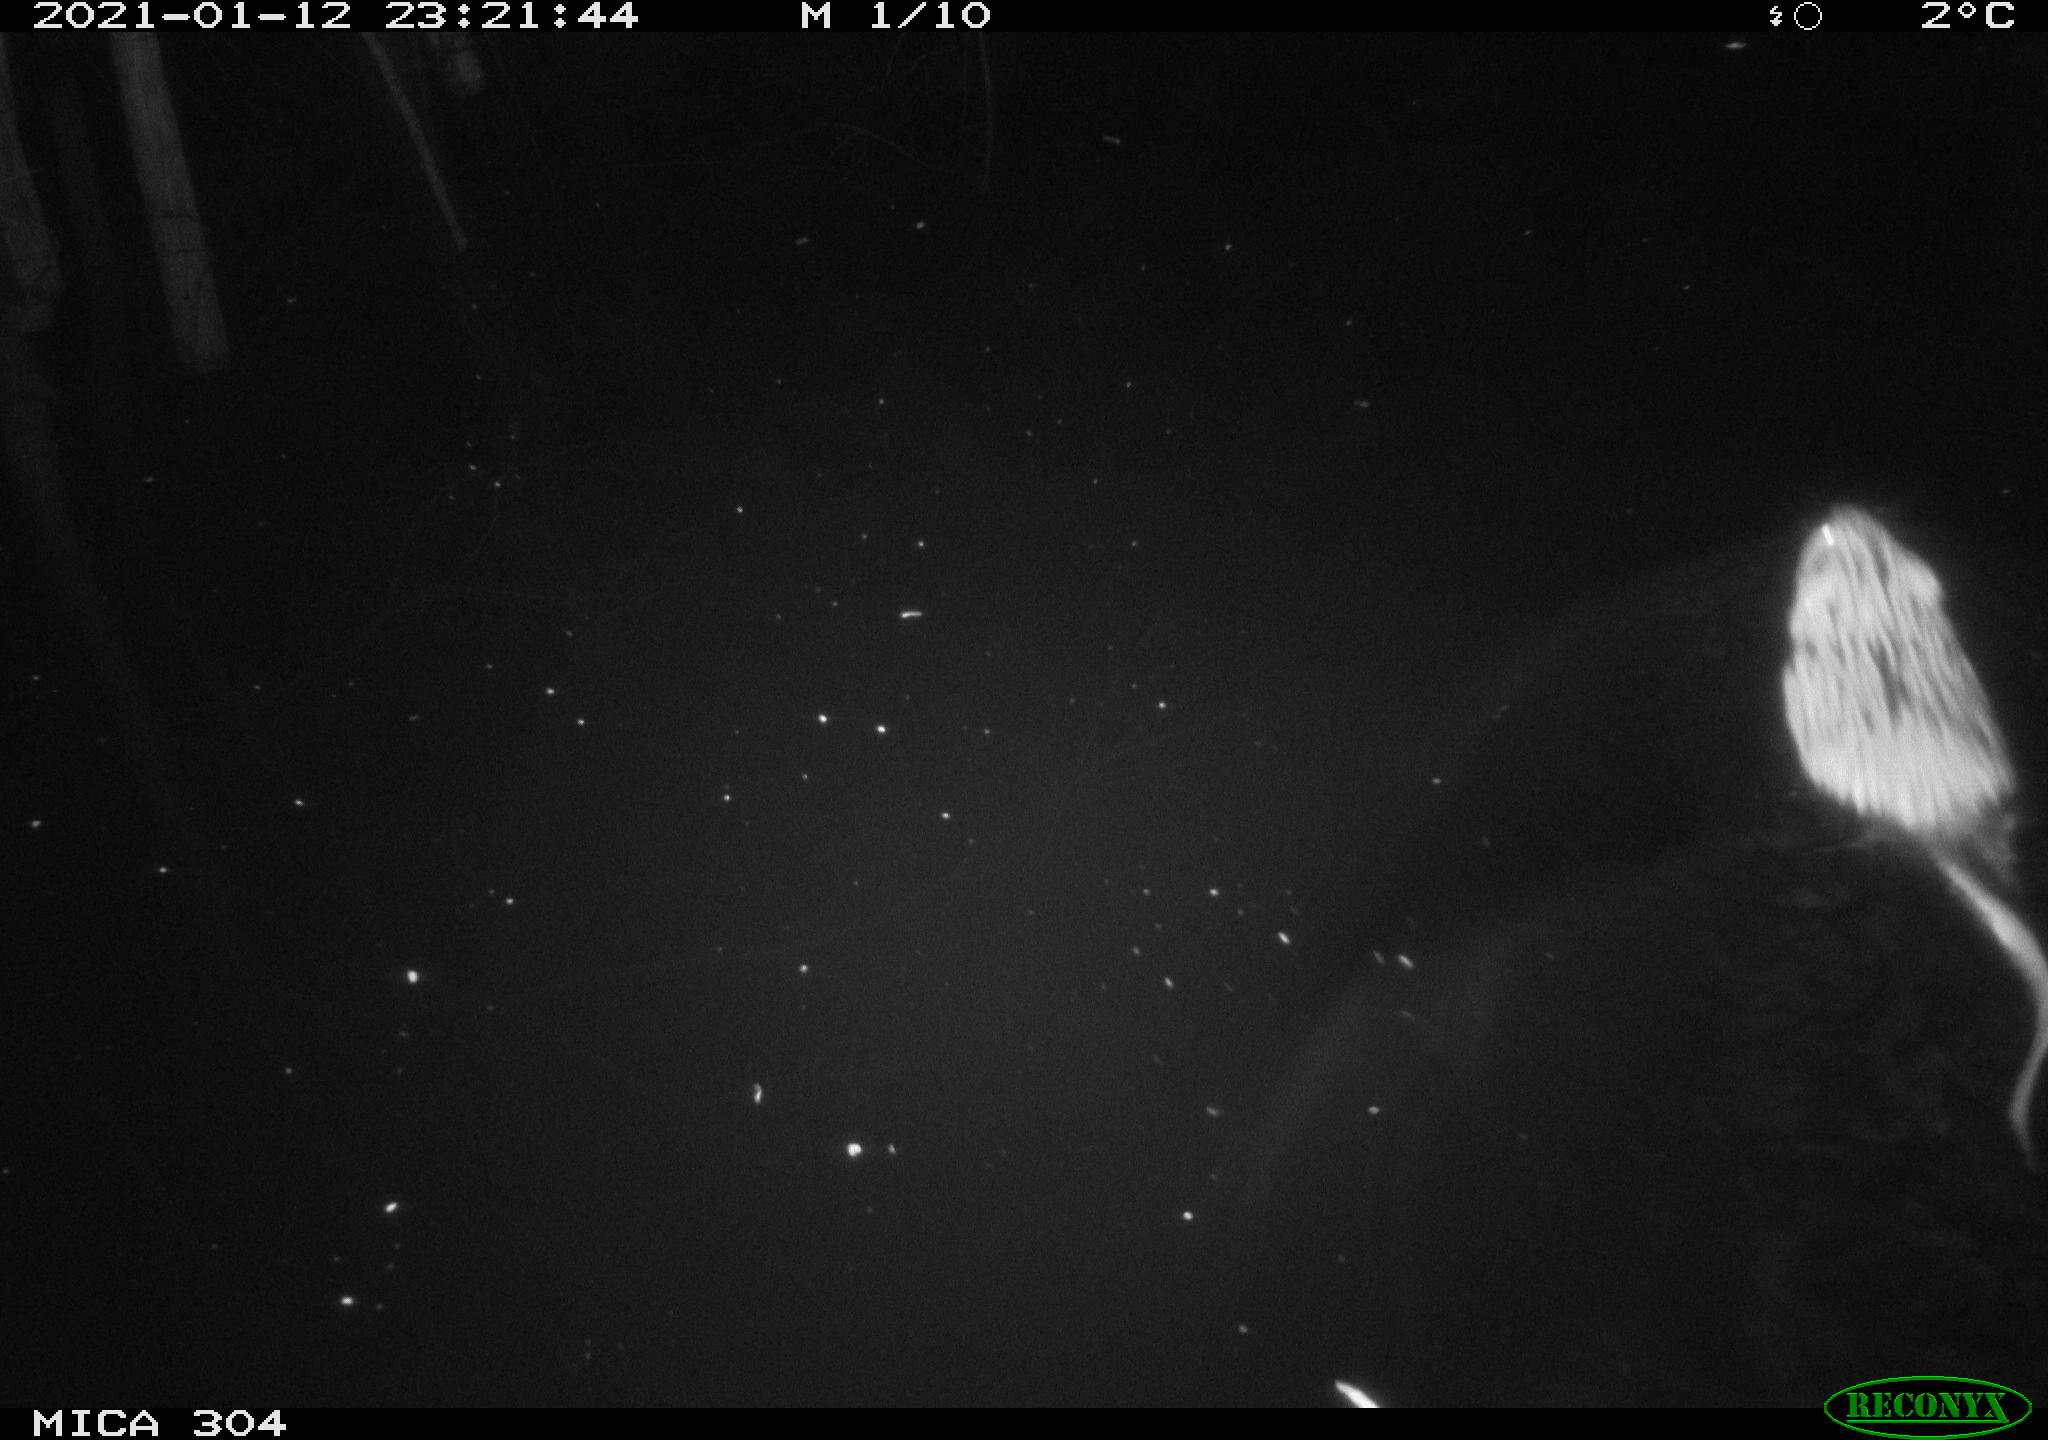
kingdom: Animalia
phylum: Chordata
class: Mammalia
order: Rodentia
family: Cricetidae
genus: Ondatra
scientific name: Ondatra zibethicus
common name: Muskrat
